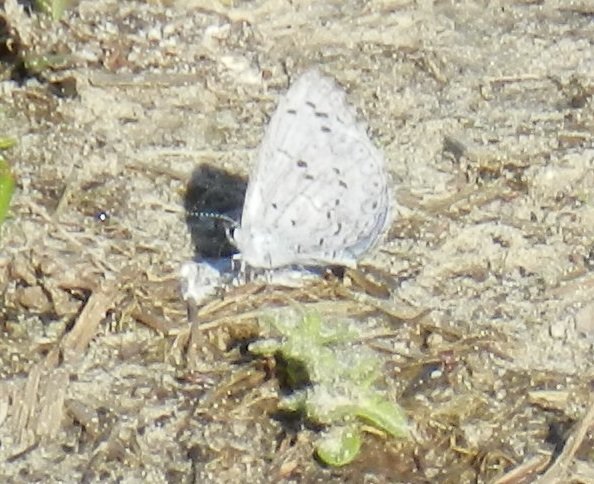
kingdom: Animalia
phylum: Arthropoda
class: Insecta
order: Lepidoptera
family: Lycaenidae
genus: Celastrina
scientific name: Celastrina ladon
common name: Spring Azure
